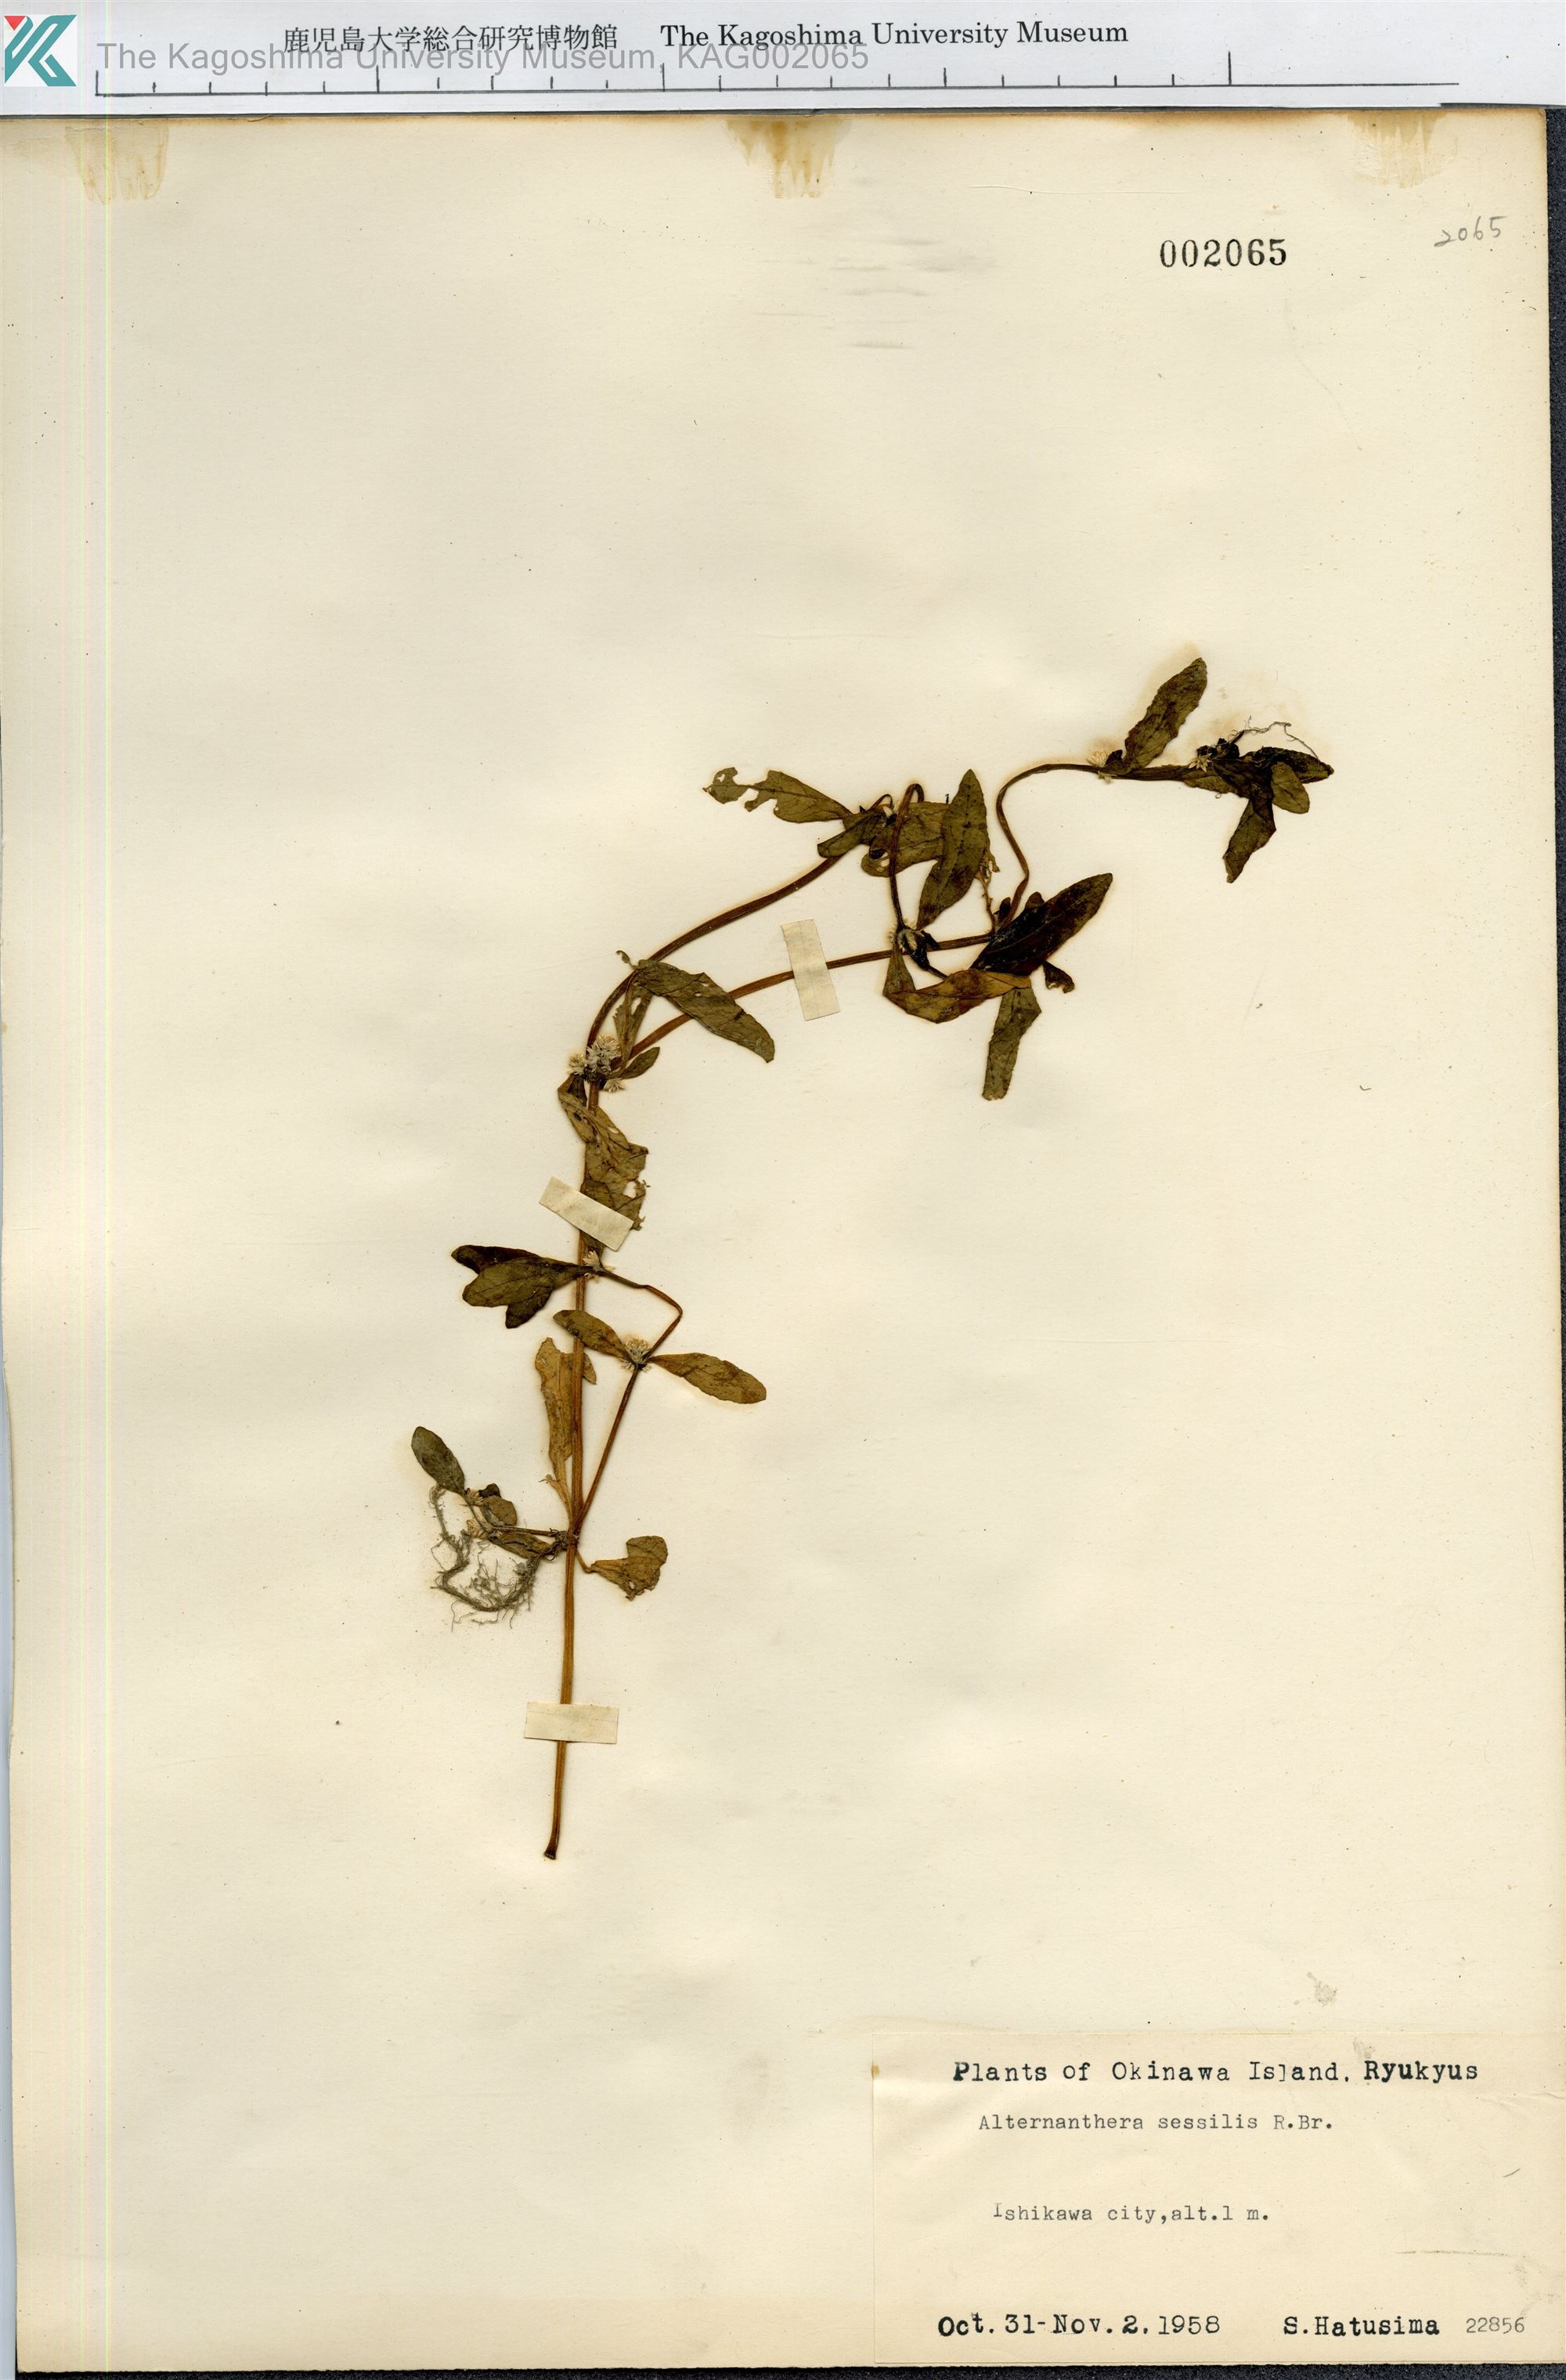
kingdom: Plantae
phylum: Tracheophyta
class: Magnoliopsida
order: Caryophyllales
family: Amaranthaceae
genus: Alternanthera
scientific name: Alternanthera sessilis
